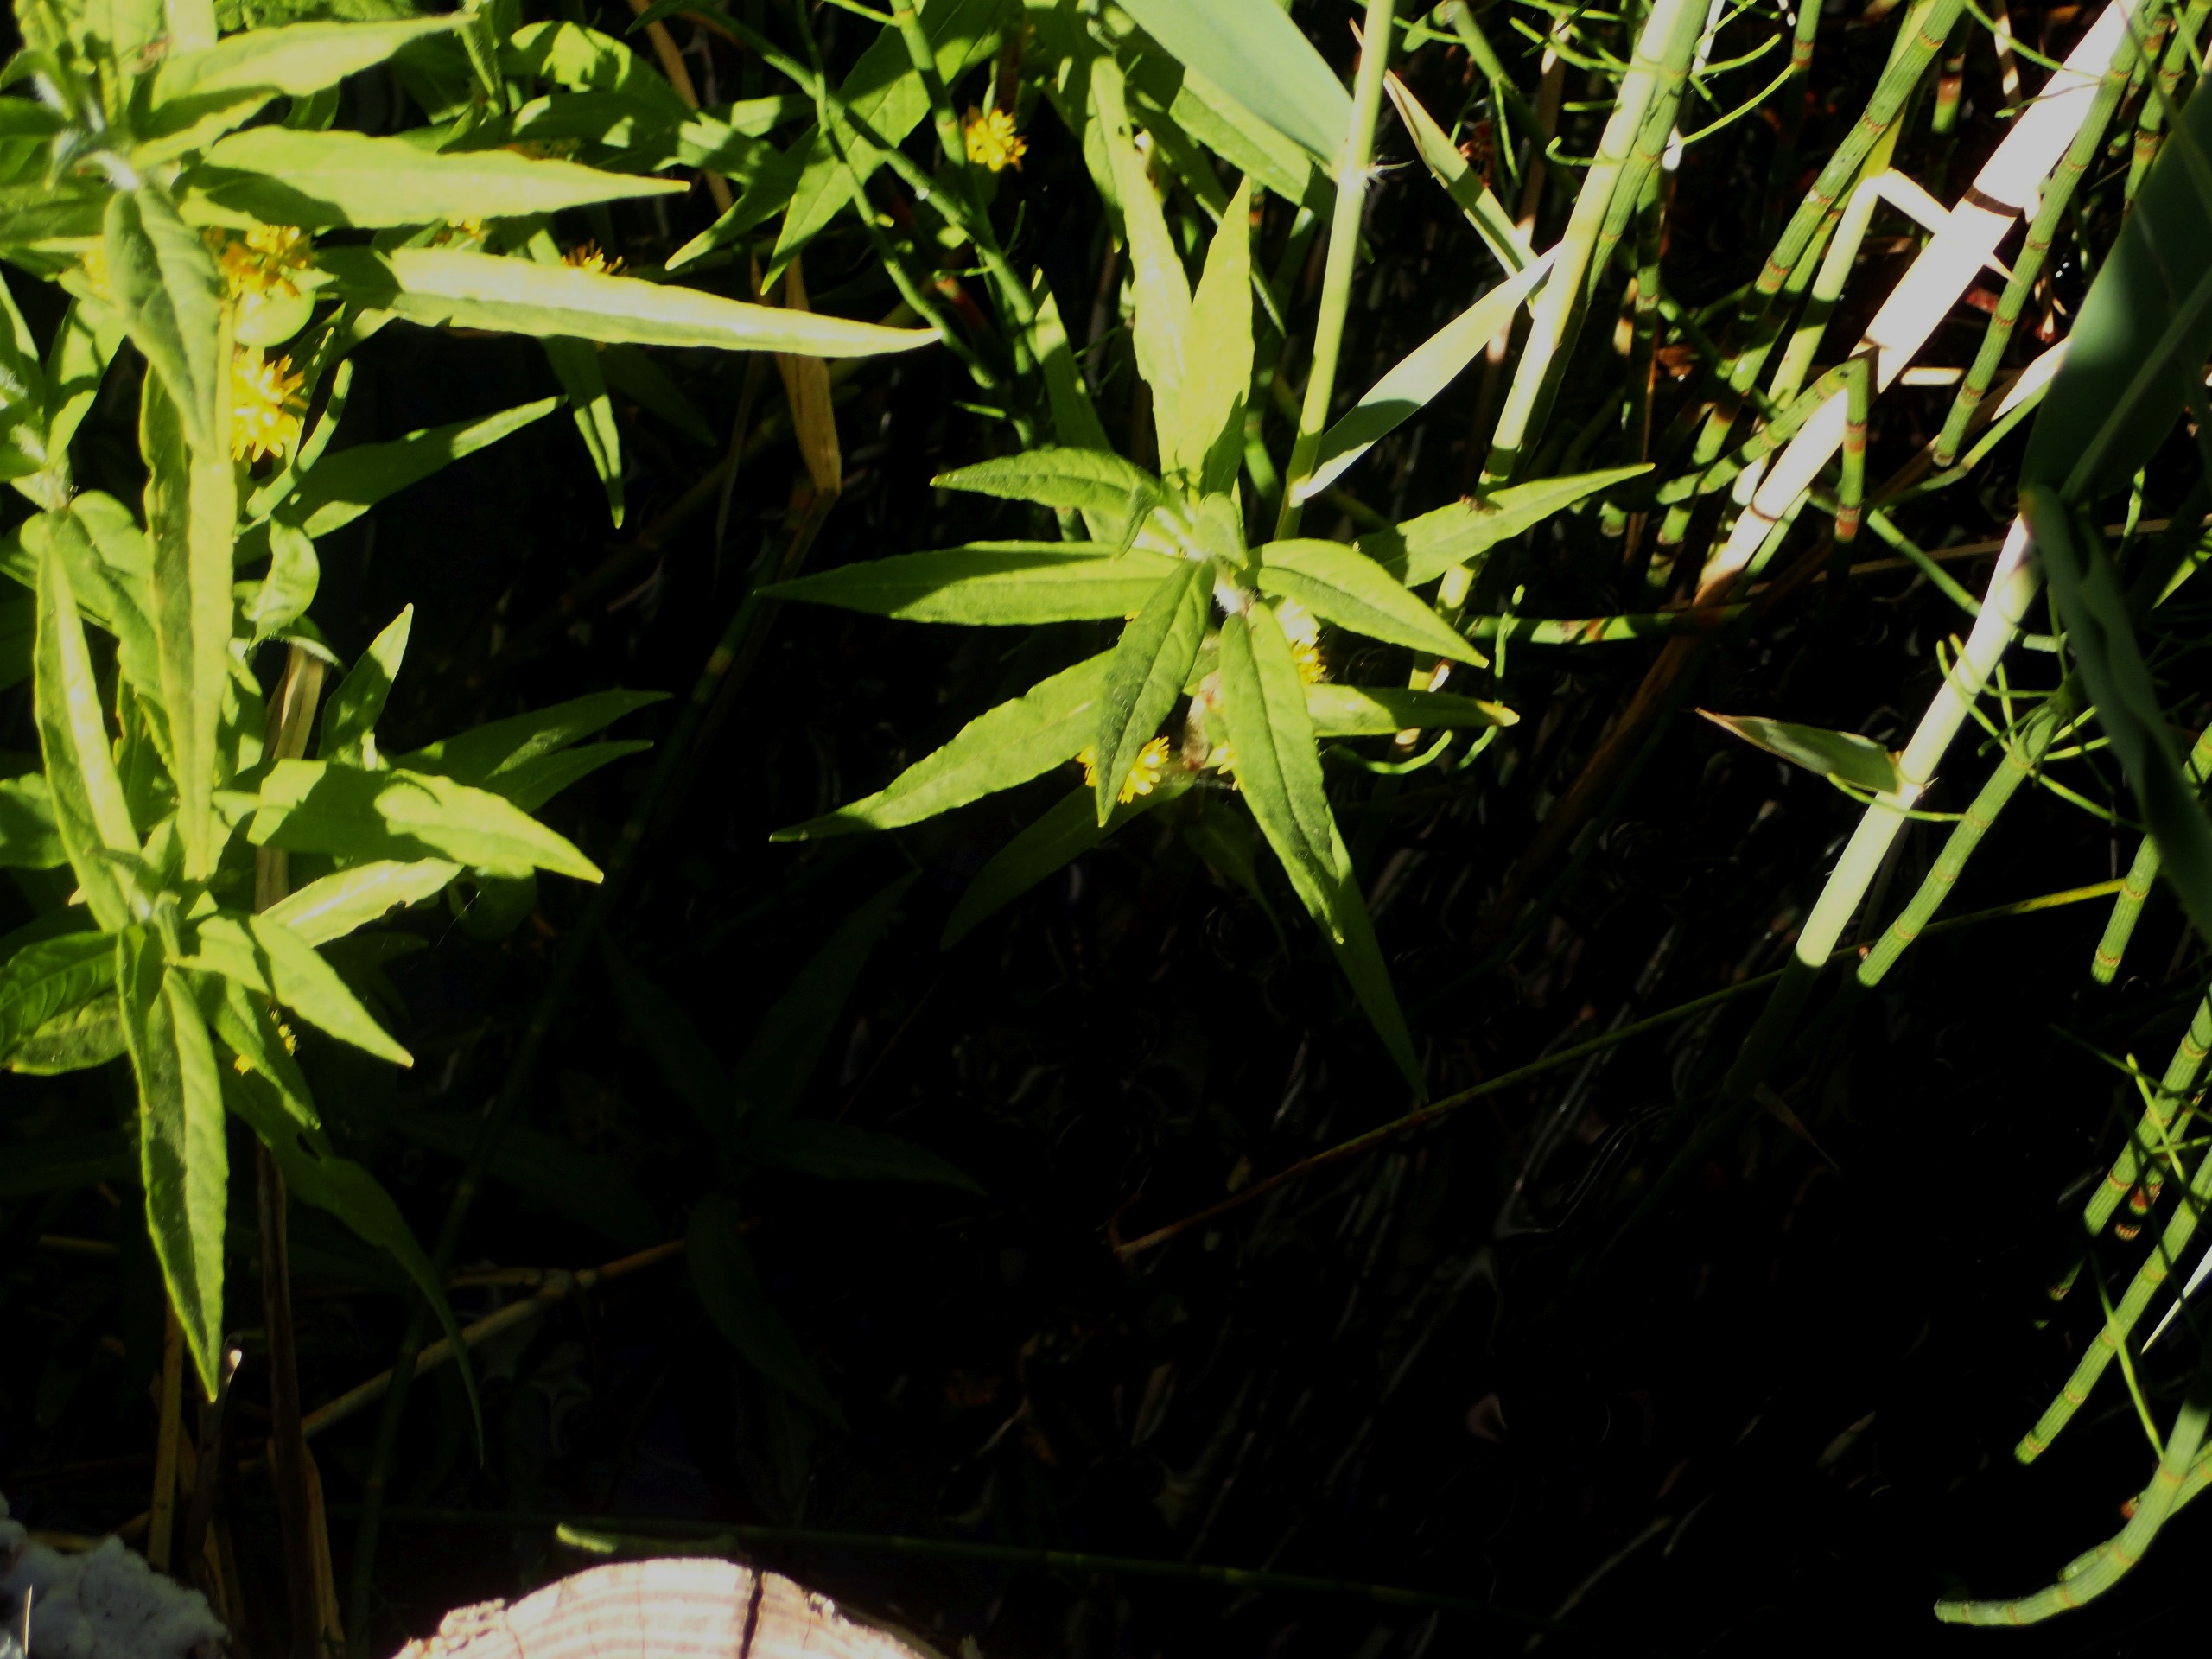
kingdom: Plantae
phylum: Tracheophyta
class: Magnoliopsida
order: Ericales
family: Primulaceae
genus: Lysimachia
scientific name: Lysimachia thyrsiflora
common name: Dusk-fredløs
